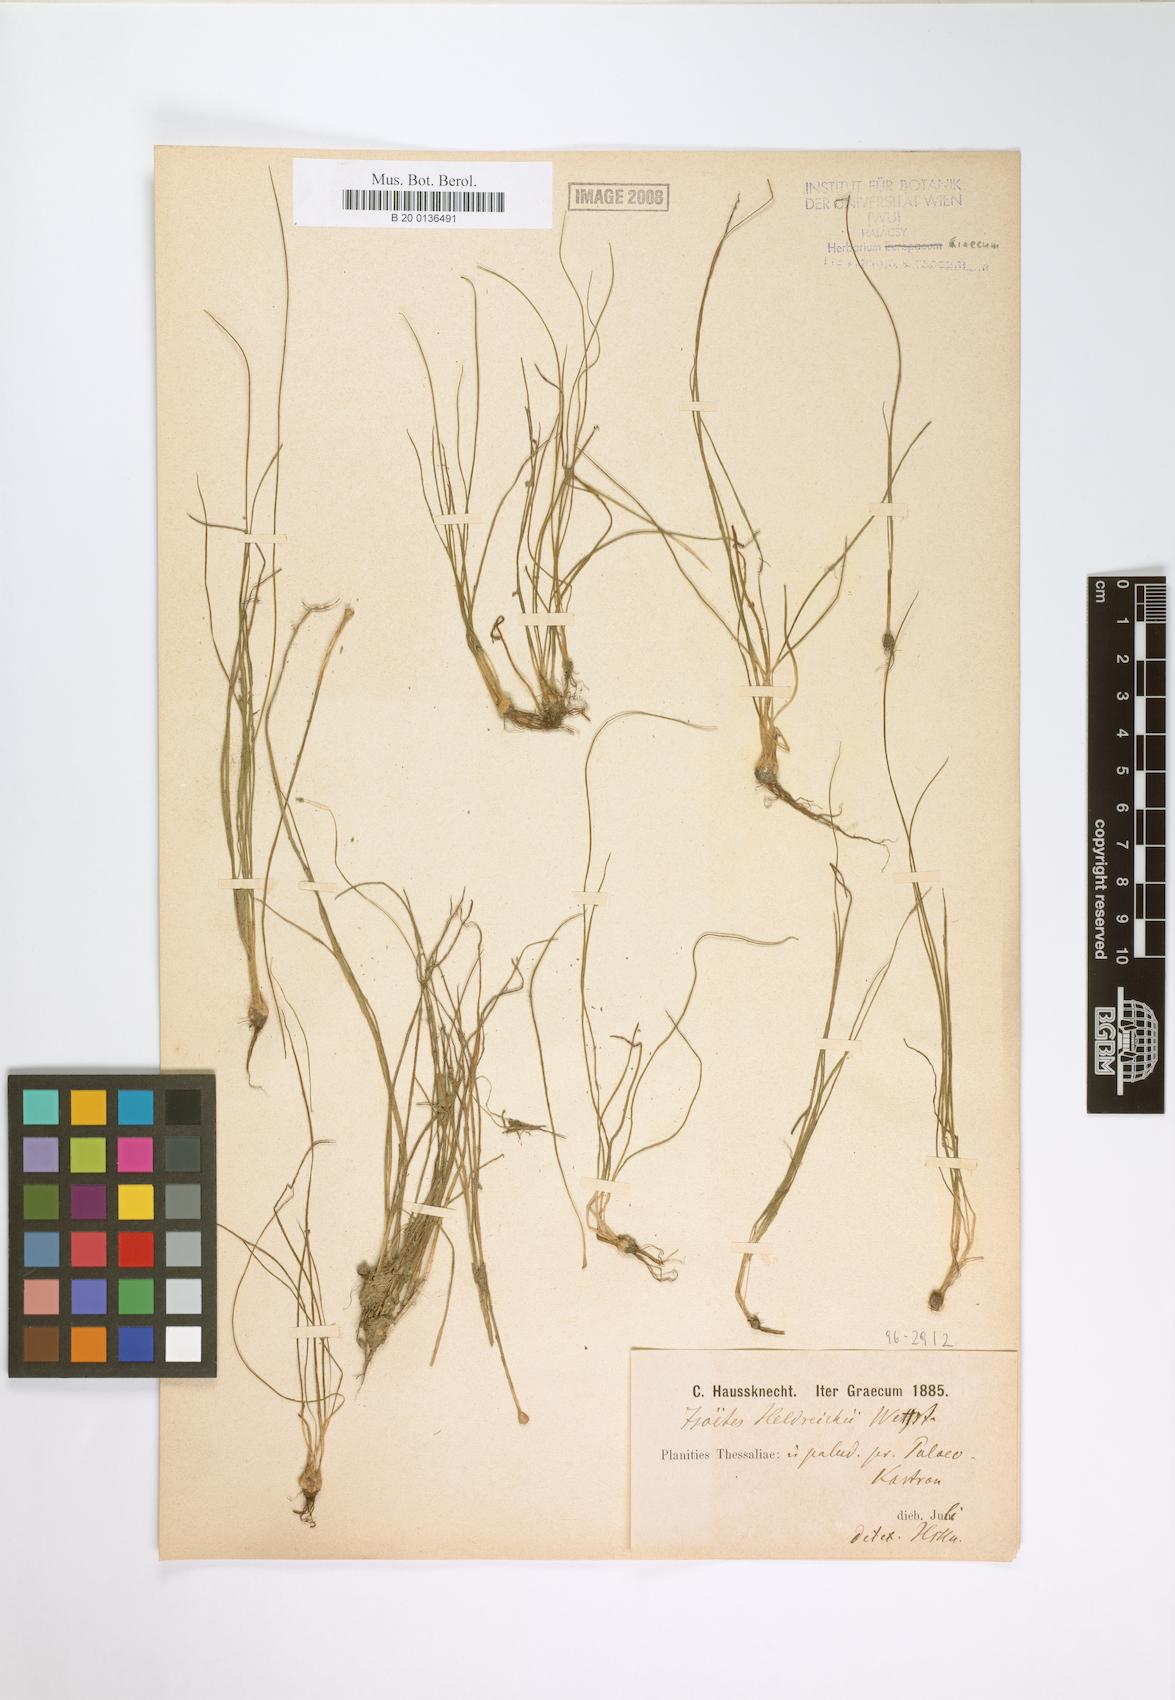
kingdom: Plantae
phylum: Tracheophyta
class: Lycopodiopsida
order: Isoetales
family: Isoetaceae
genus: Isoetes
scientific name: Isoetes heldreichii
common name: Pindus quillwort
